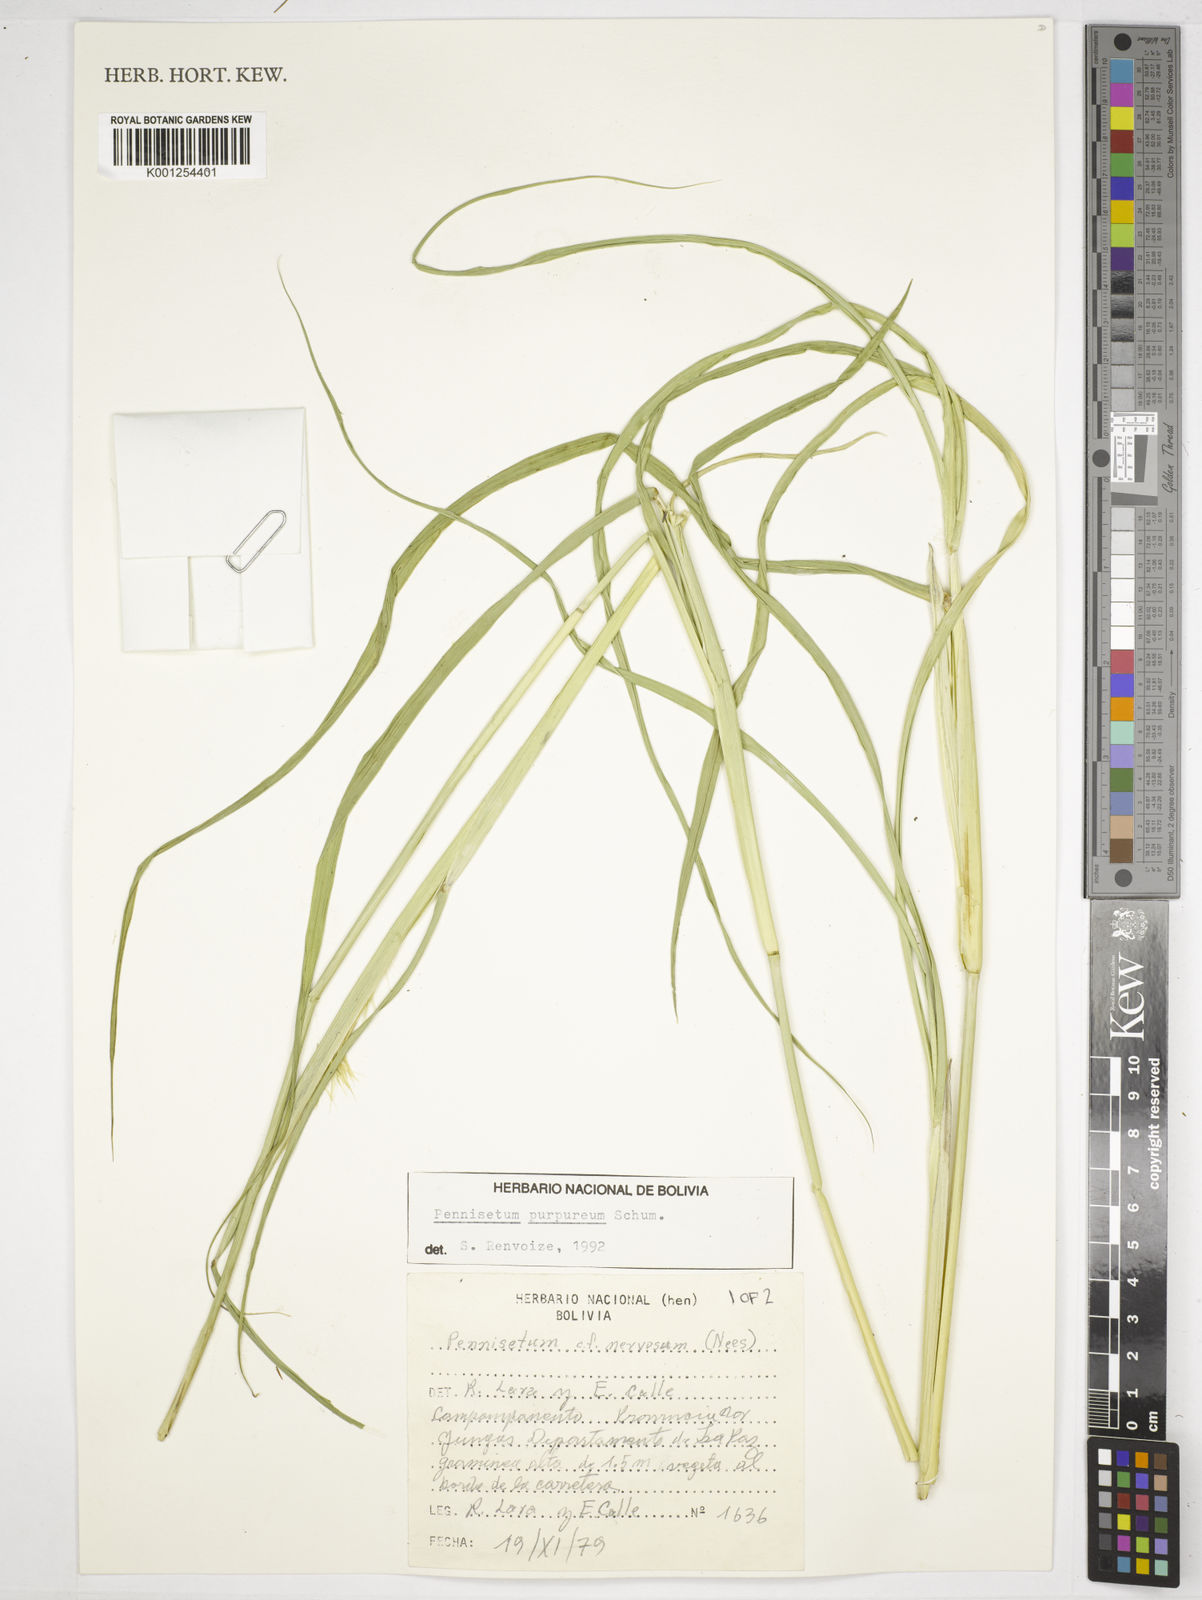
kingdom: Plantae
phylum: Tracheophyta
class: Liliopsida
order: Poales
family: Poaceae
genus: Cenchrus
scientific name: Cenchrus purpureus
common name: Elephant grass
